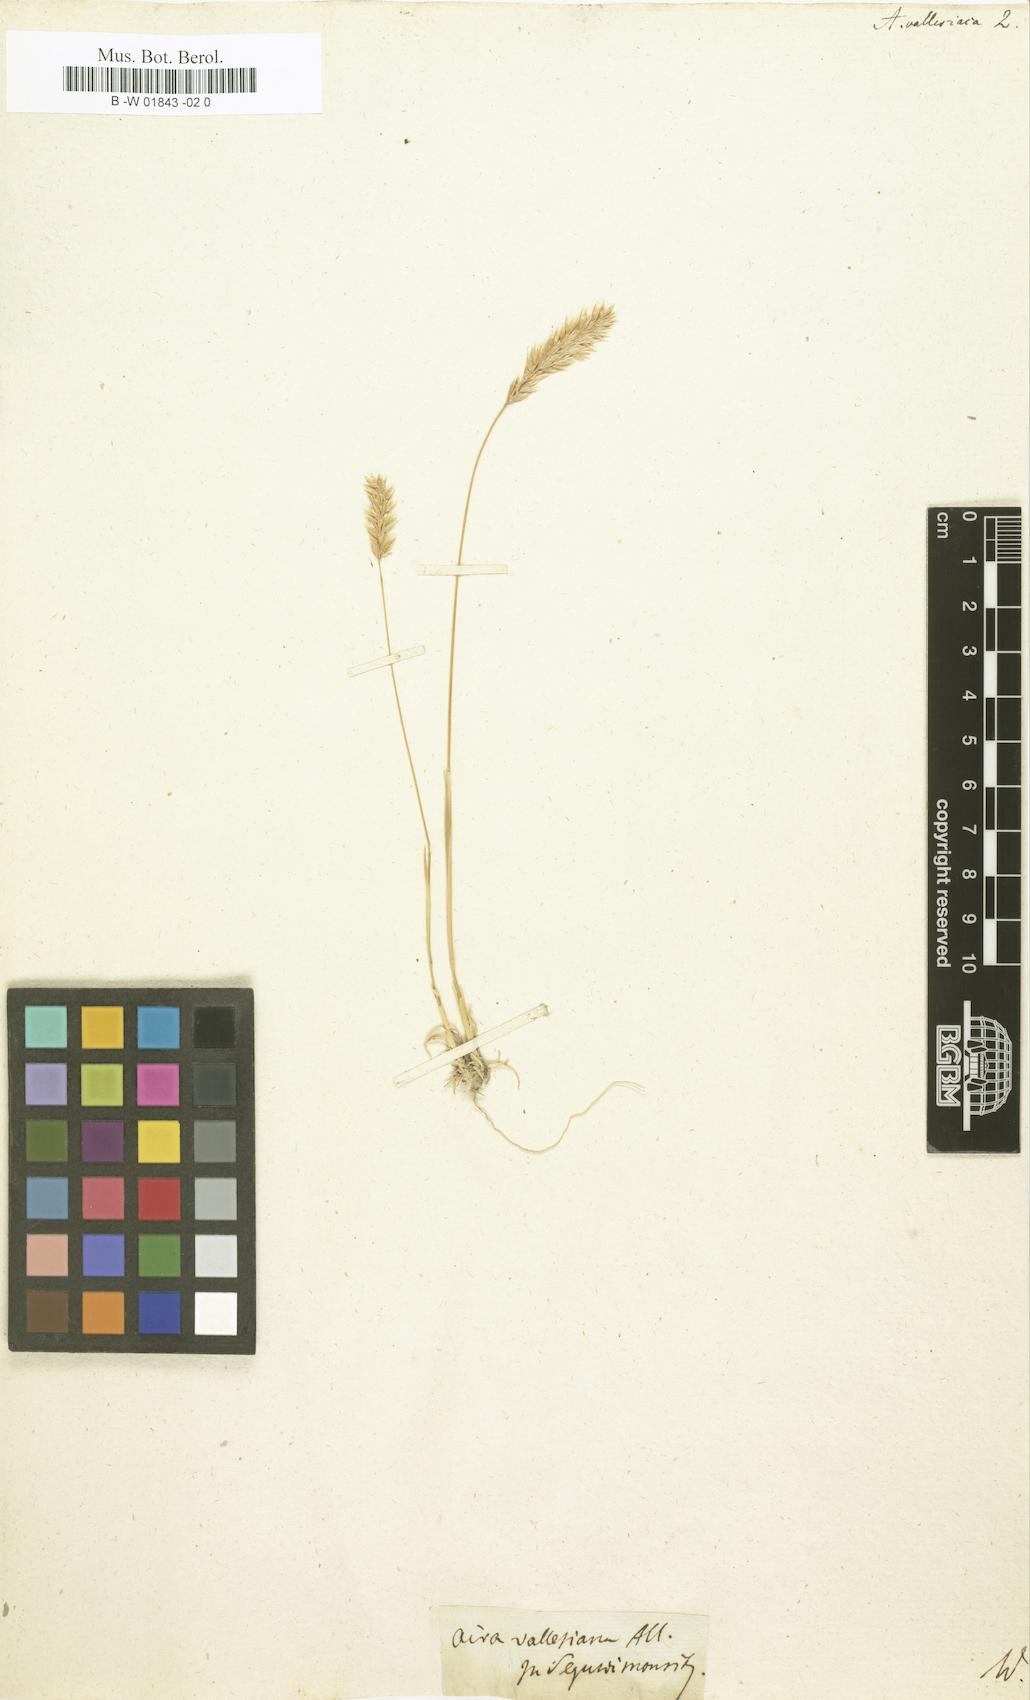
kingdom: Plantae
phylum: Tracheophyta
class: Liliopsida
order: Poales
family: Poaceae
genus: Koeleria
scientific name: Koeleria vallesiana
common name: Somerset hair-grass
